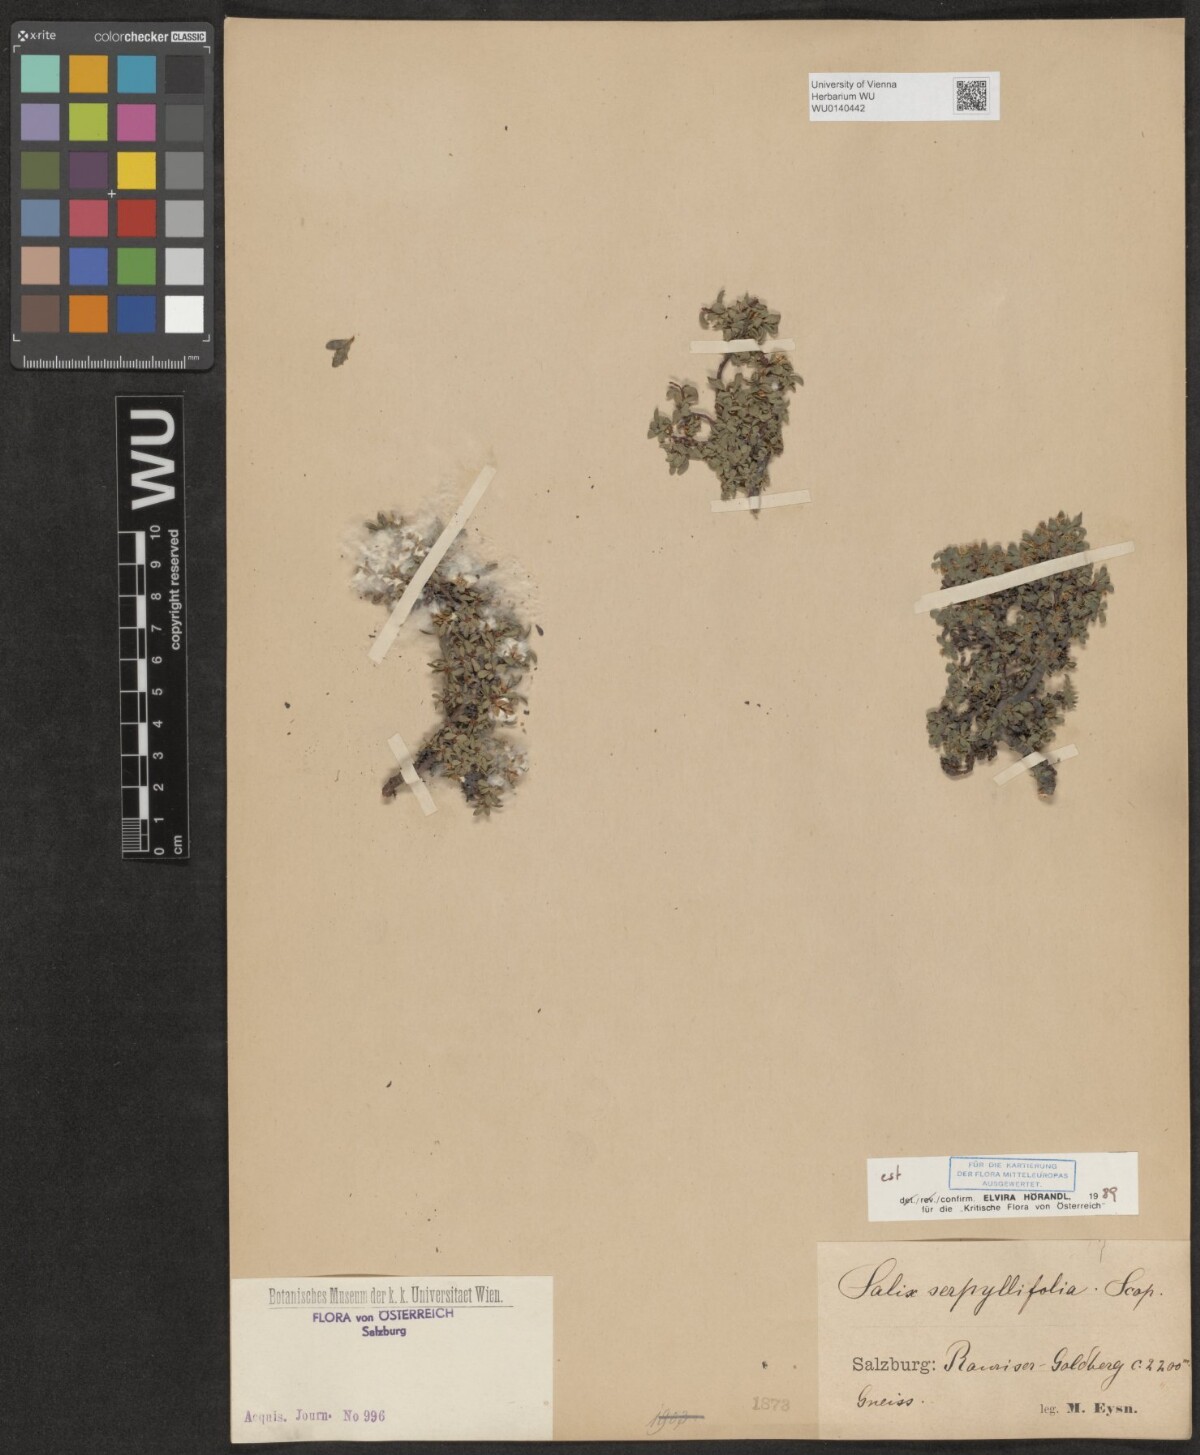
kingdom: Plantae
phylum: Tracheophyta
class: Magnoliopsida
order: Malpighiales
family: Salicaceae
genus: Salix
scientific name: Salix serpillifolia
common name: Thyme-leaf willow
